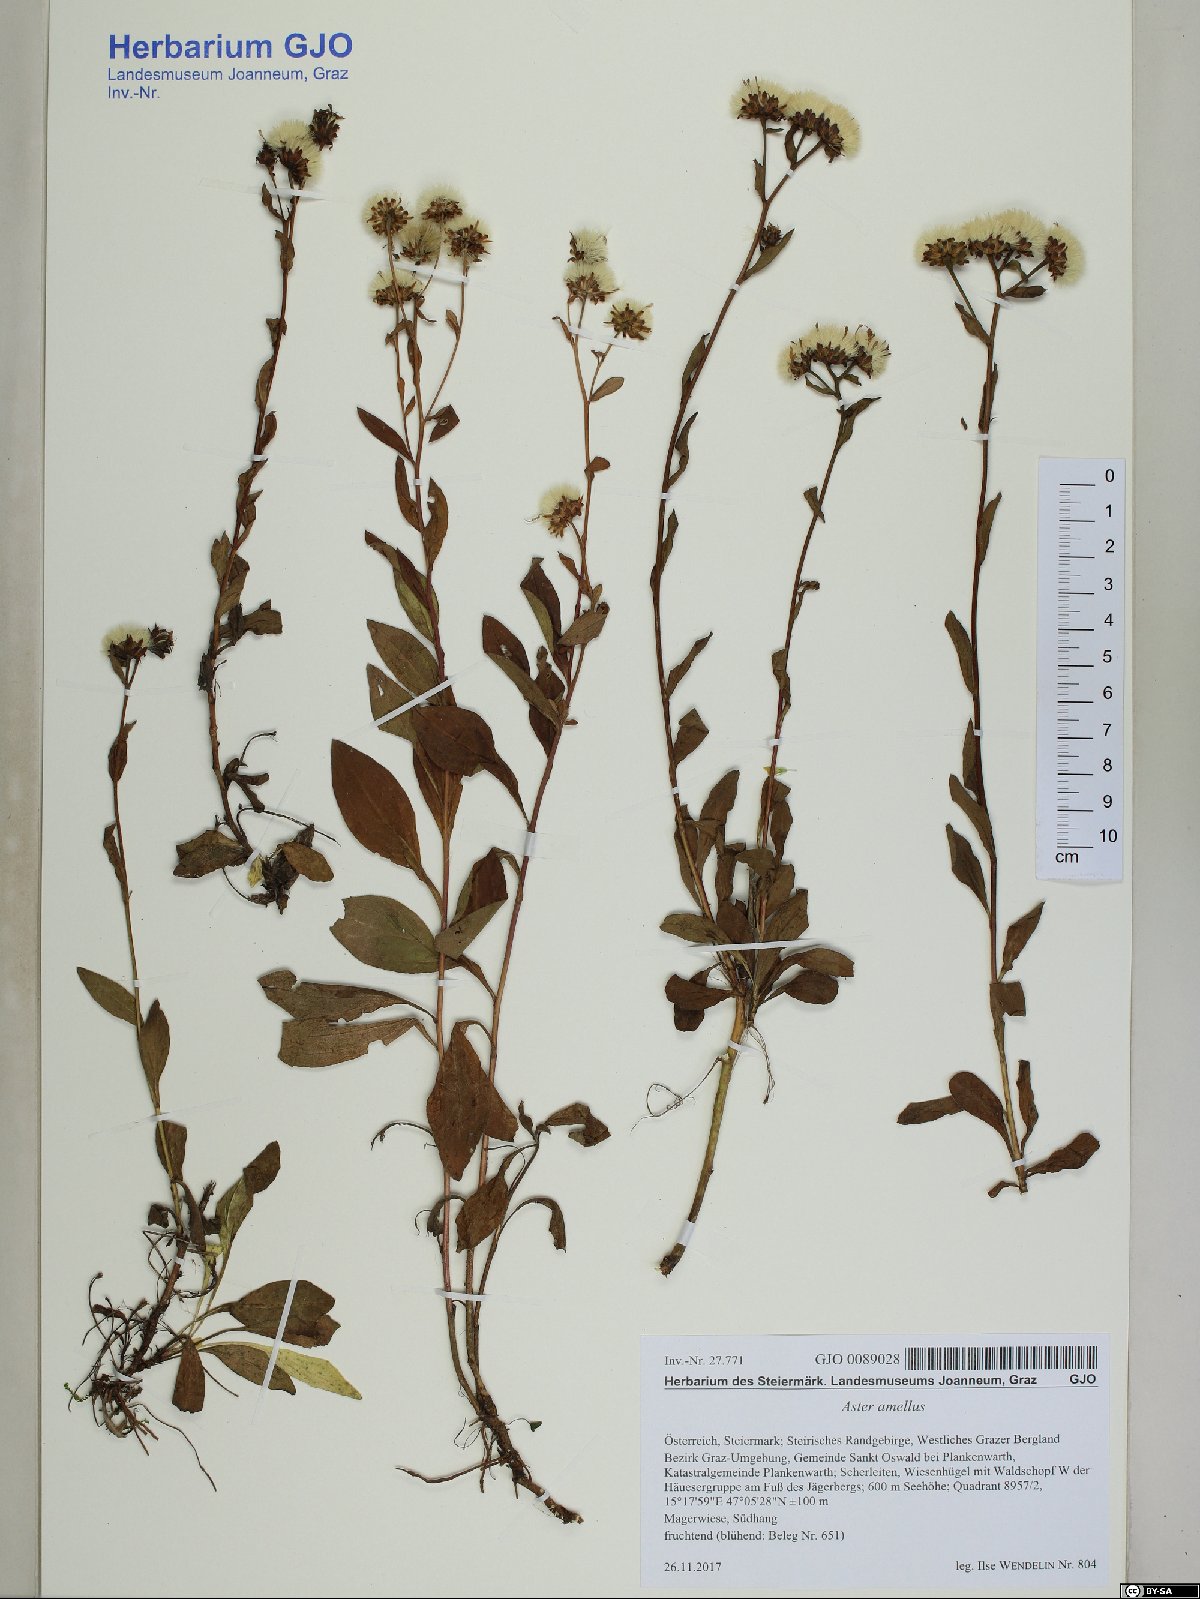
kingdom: Plantae
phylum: Tracheophyta
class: Magnoliopsida
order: Asterales
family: Asteraceae
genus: Aster
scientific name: Aster amellus
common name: European michaelmas daisy
